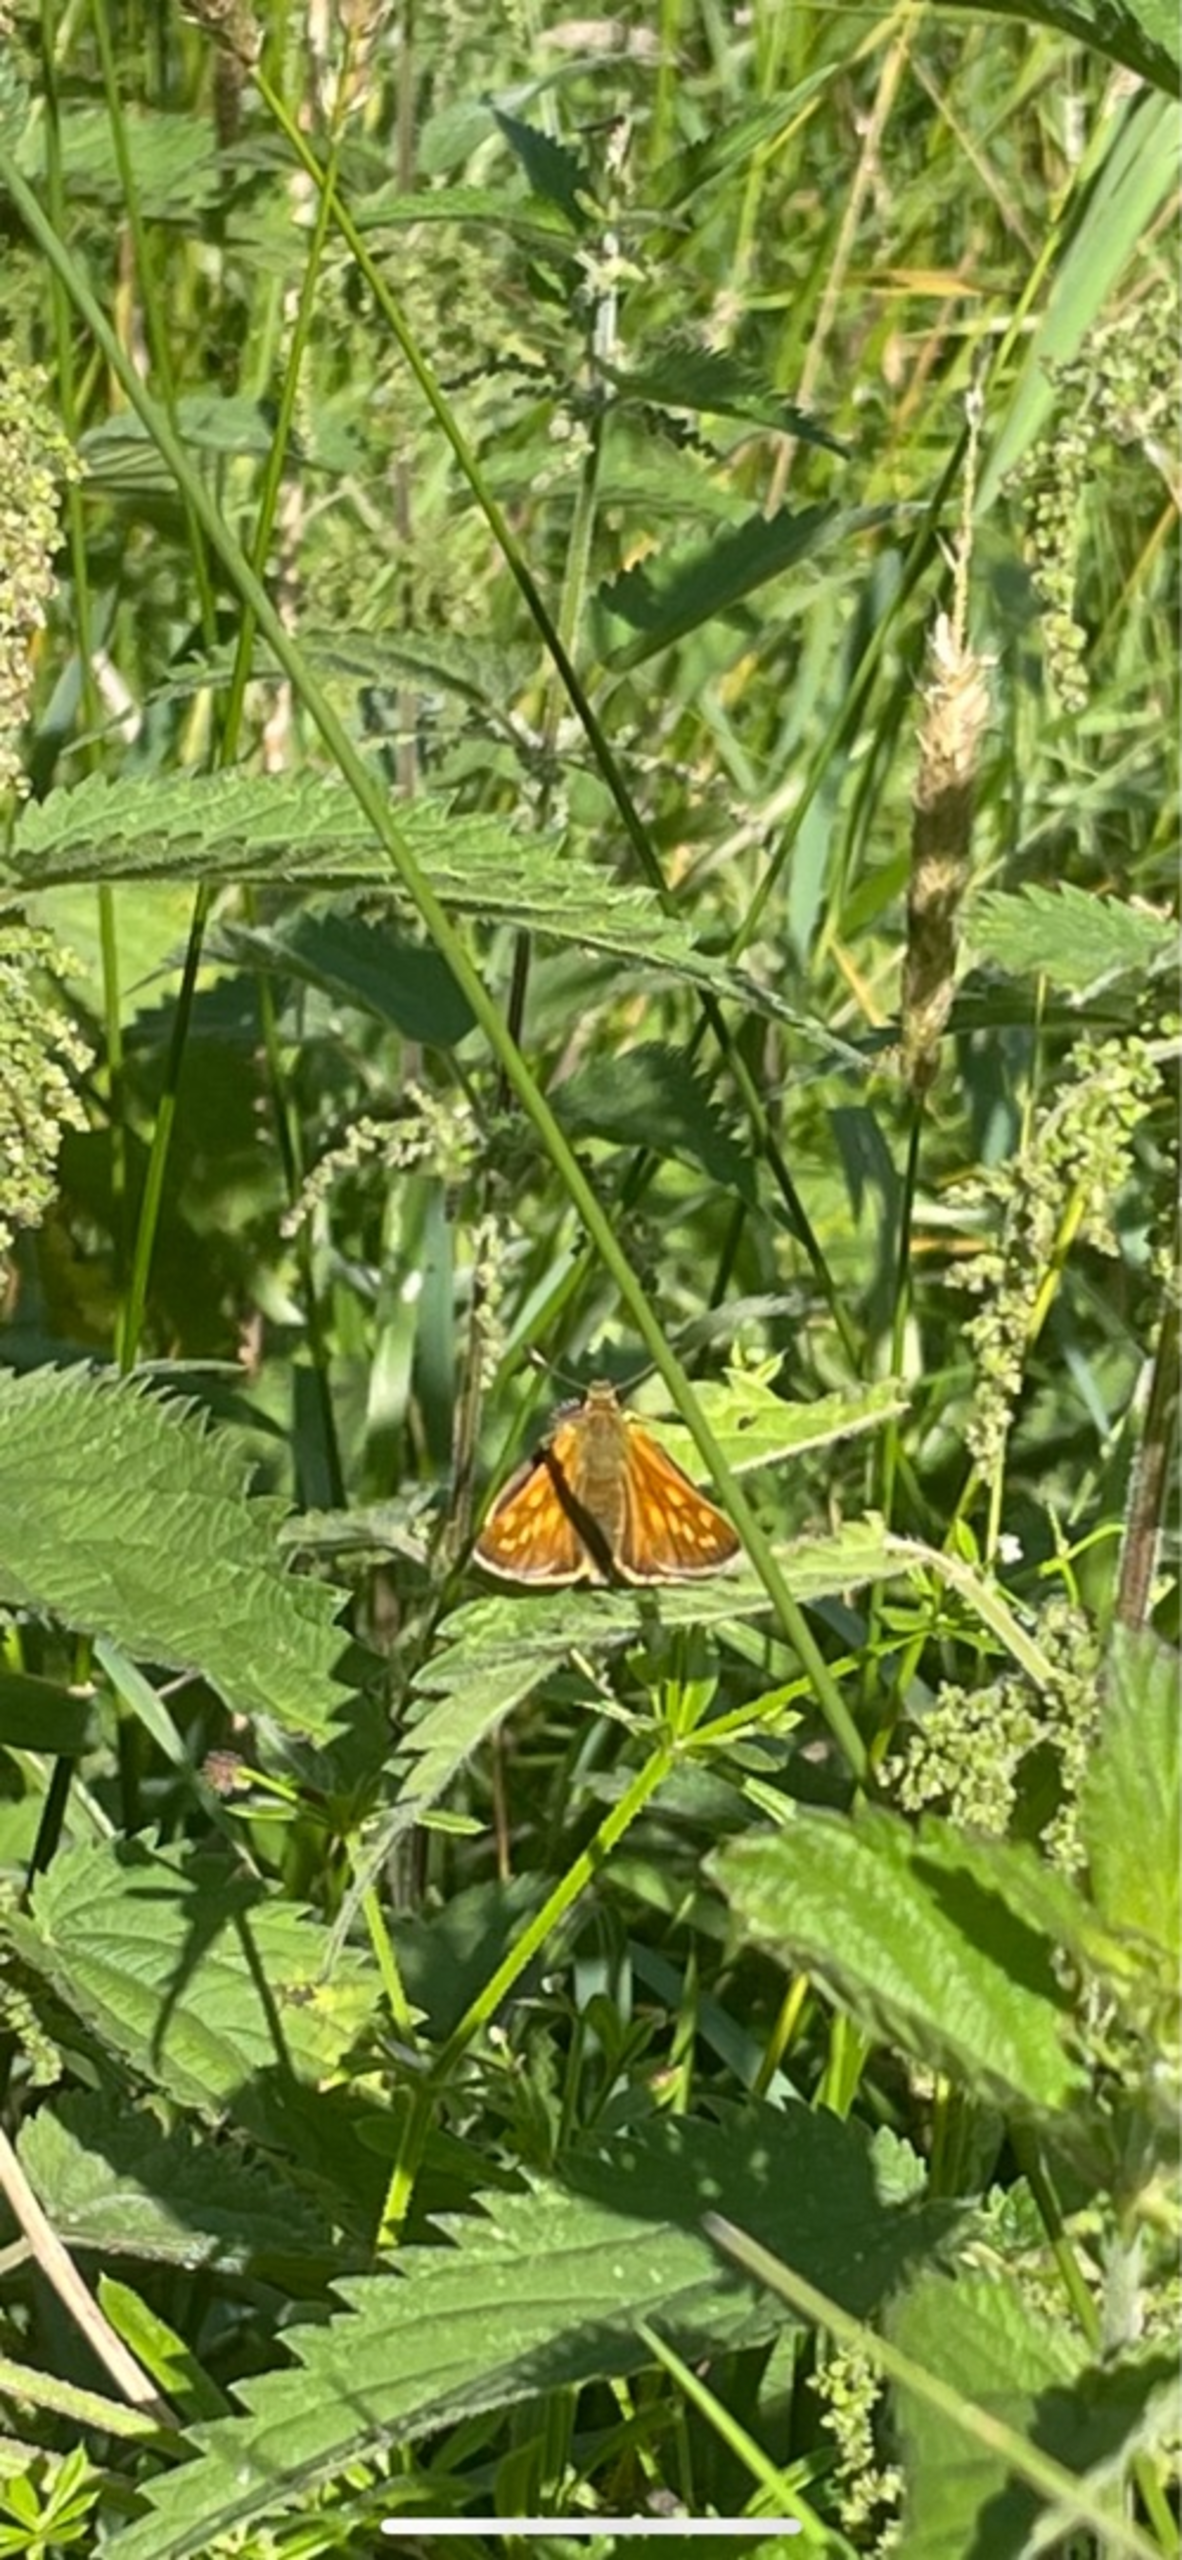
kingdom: Animalia
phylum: Arthropoda
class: Insecta
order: Lepidoptera
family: Hesperiidae
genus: Ochlodes
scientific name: Ochlodes venata
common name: Stor bredpande
